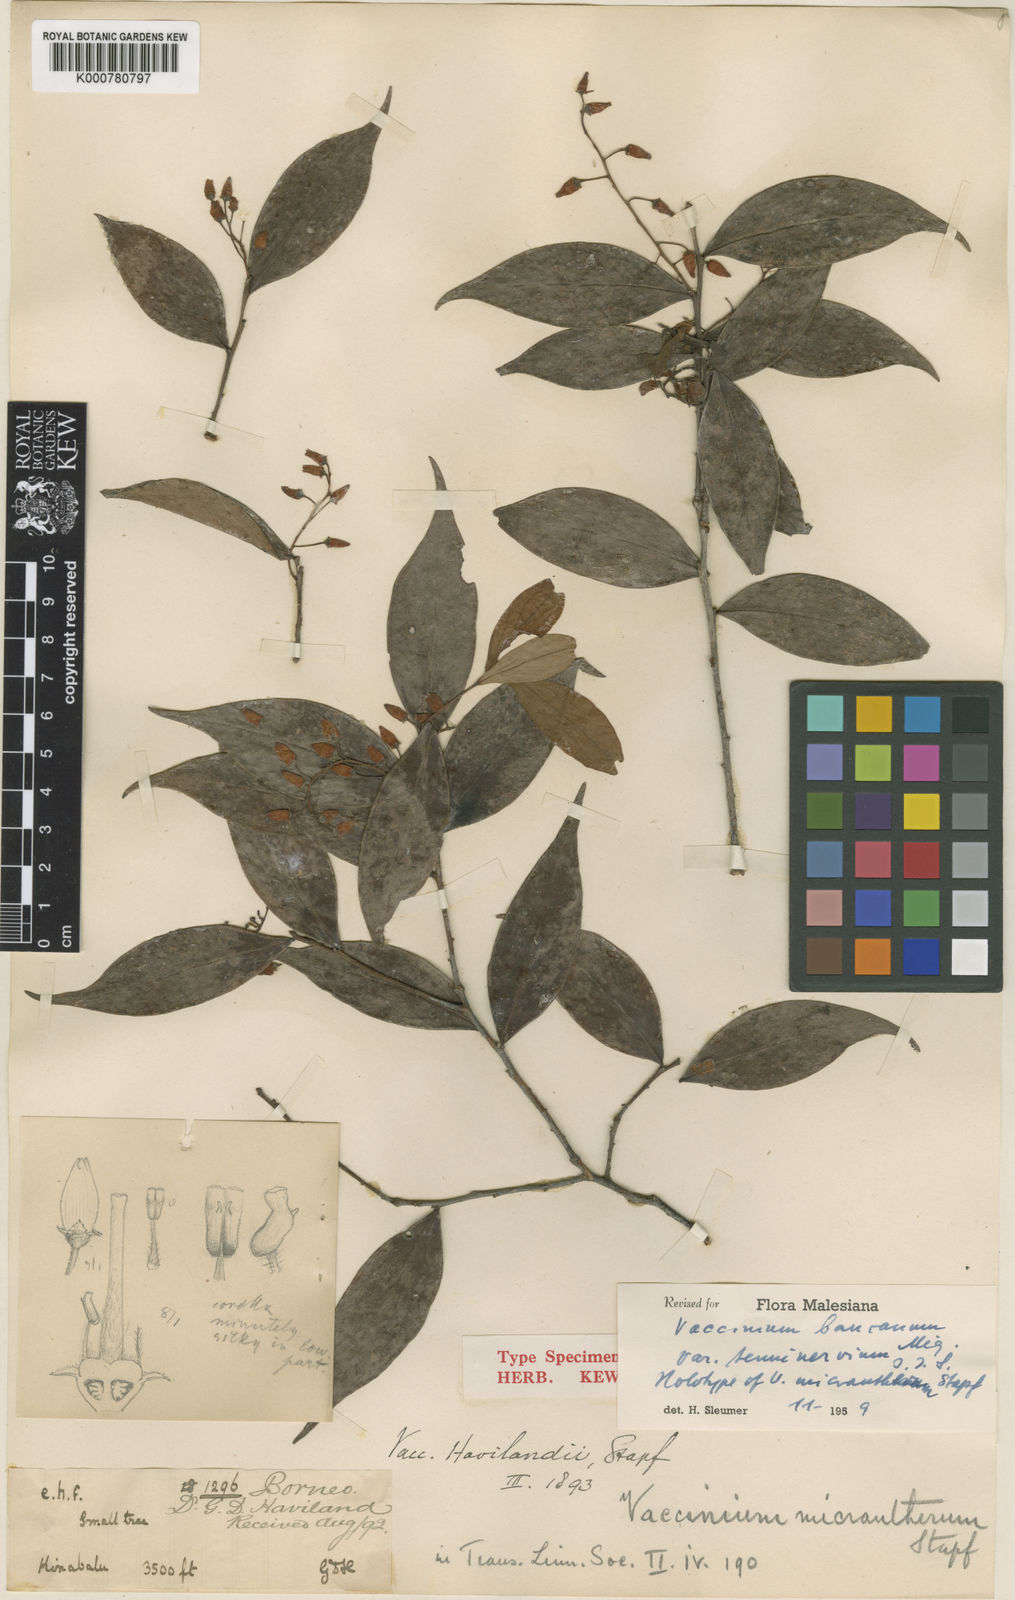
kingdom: Plantae
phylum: Tracheophyta
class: Magnoliopsida
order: Ericales
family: Ericaceae
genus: Vaccinium
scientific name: Vaccinium bancanum
